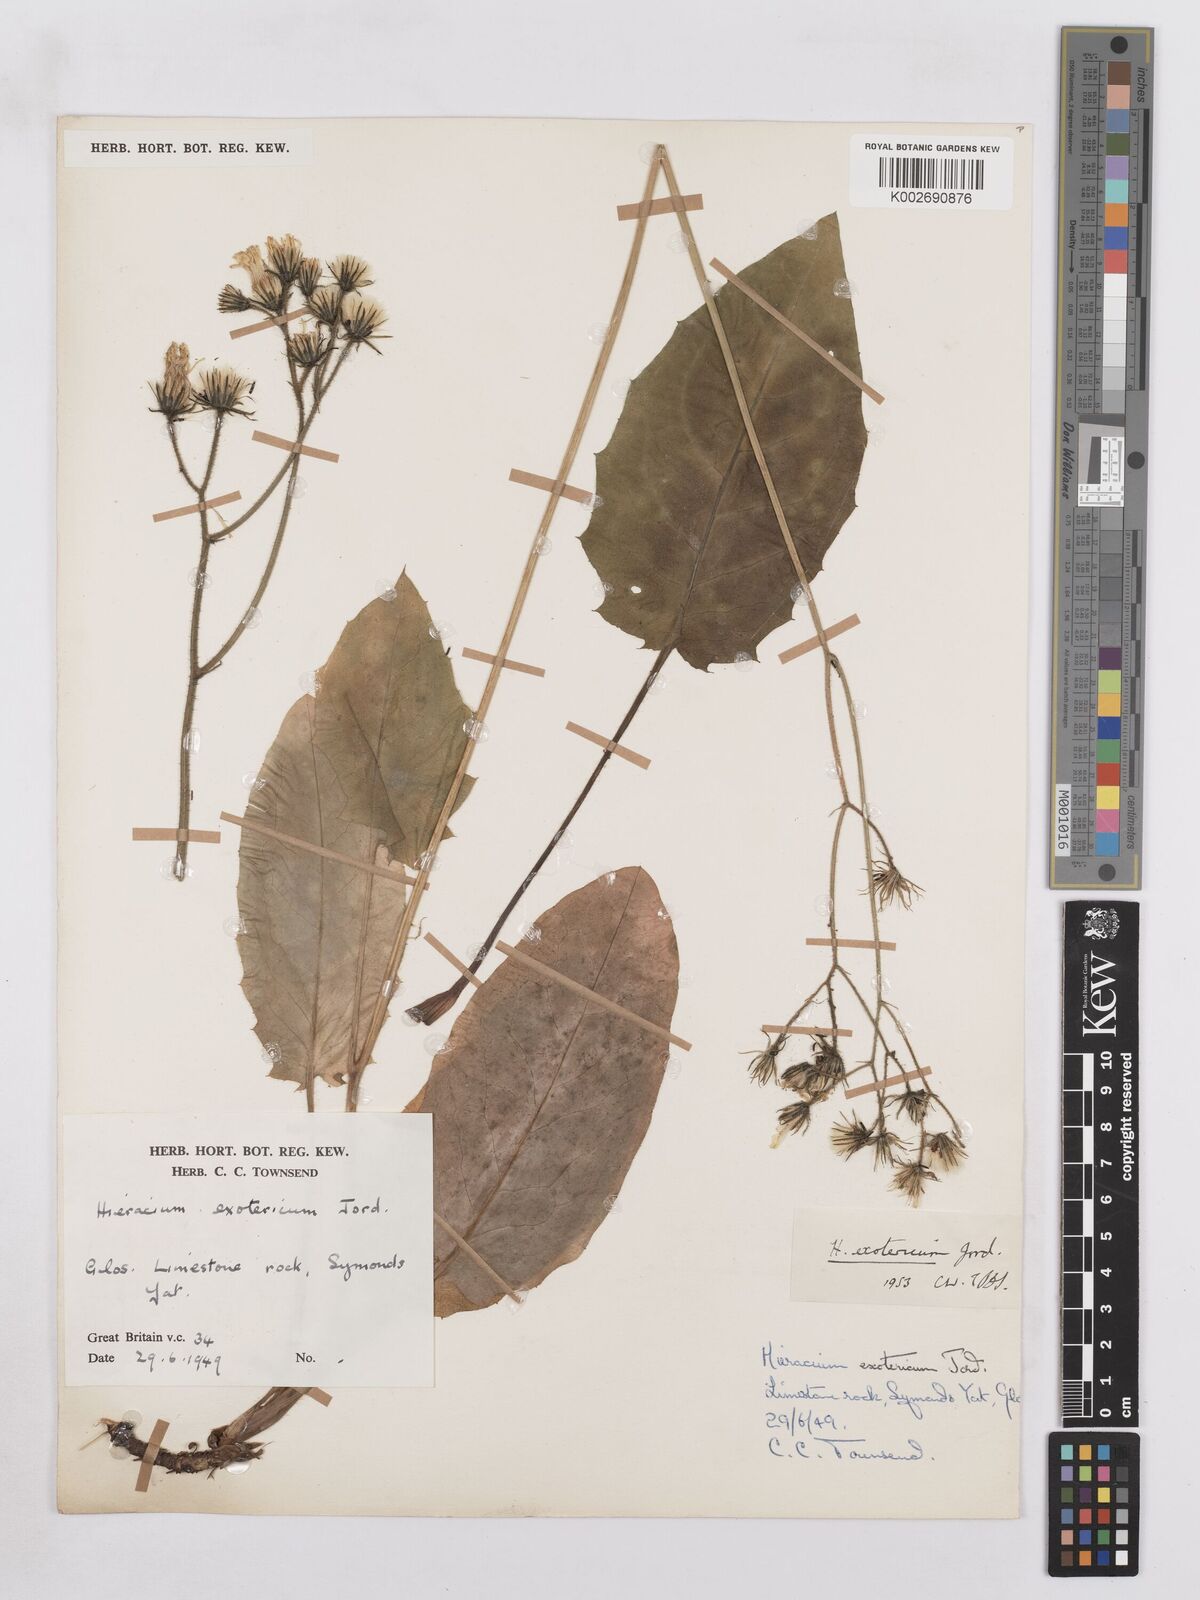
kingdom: Plantae
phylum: Tracheophyta
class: Magnoliopsida
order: Asterales
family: Asteraceae
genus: Hieracium
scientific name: Hieracium murorum
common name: Wall hawkweed
